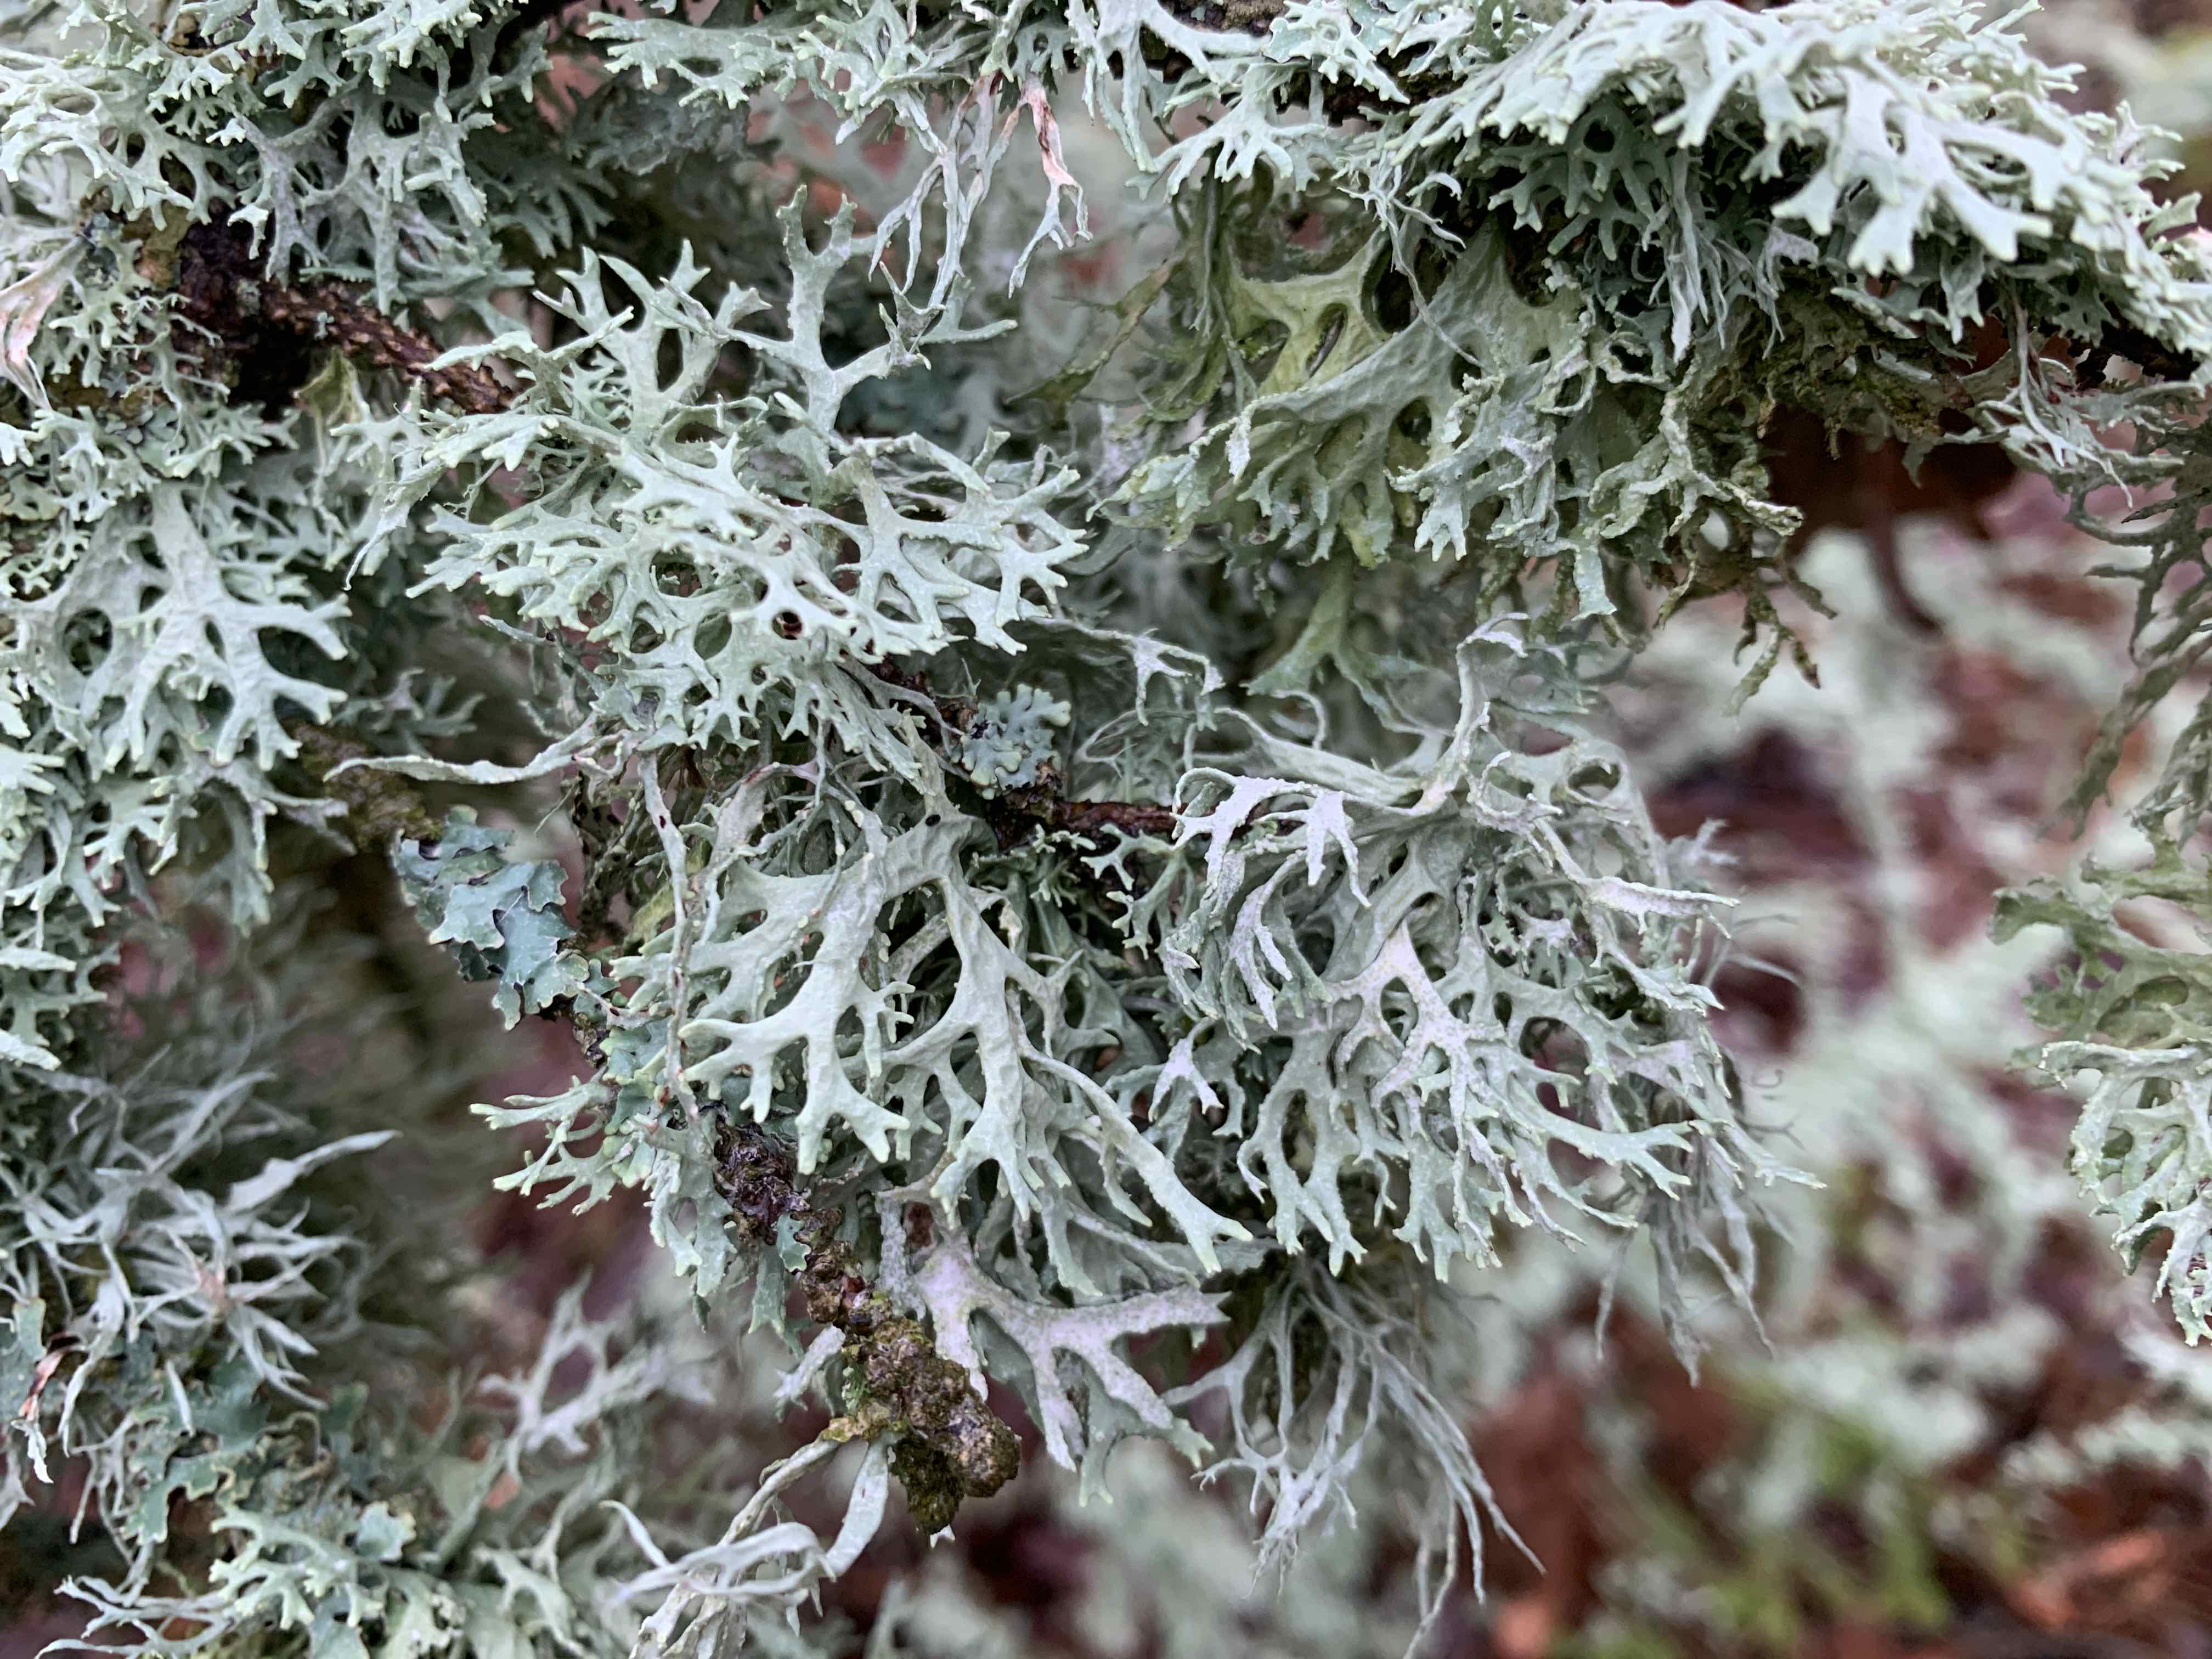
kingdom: Fungi
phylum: Ascomycota
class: Lecanoromycetes
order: Lecanorales
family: Parmeliaceae
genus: Evernia
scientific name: Evernia prunastri
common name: almindelig slåenlav
